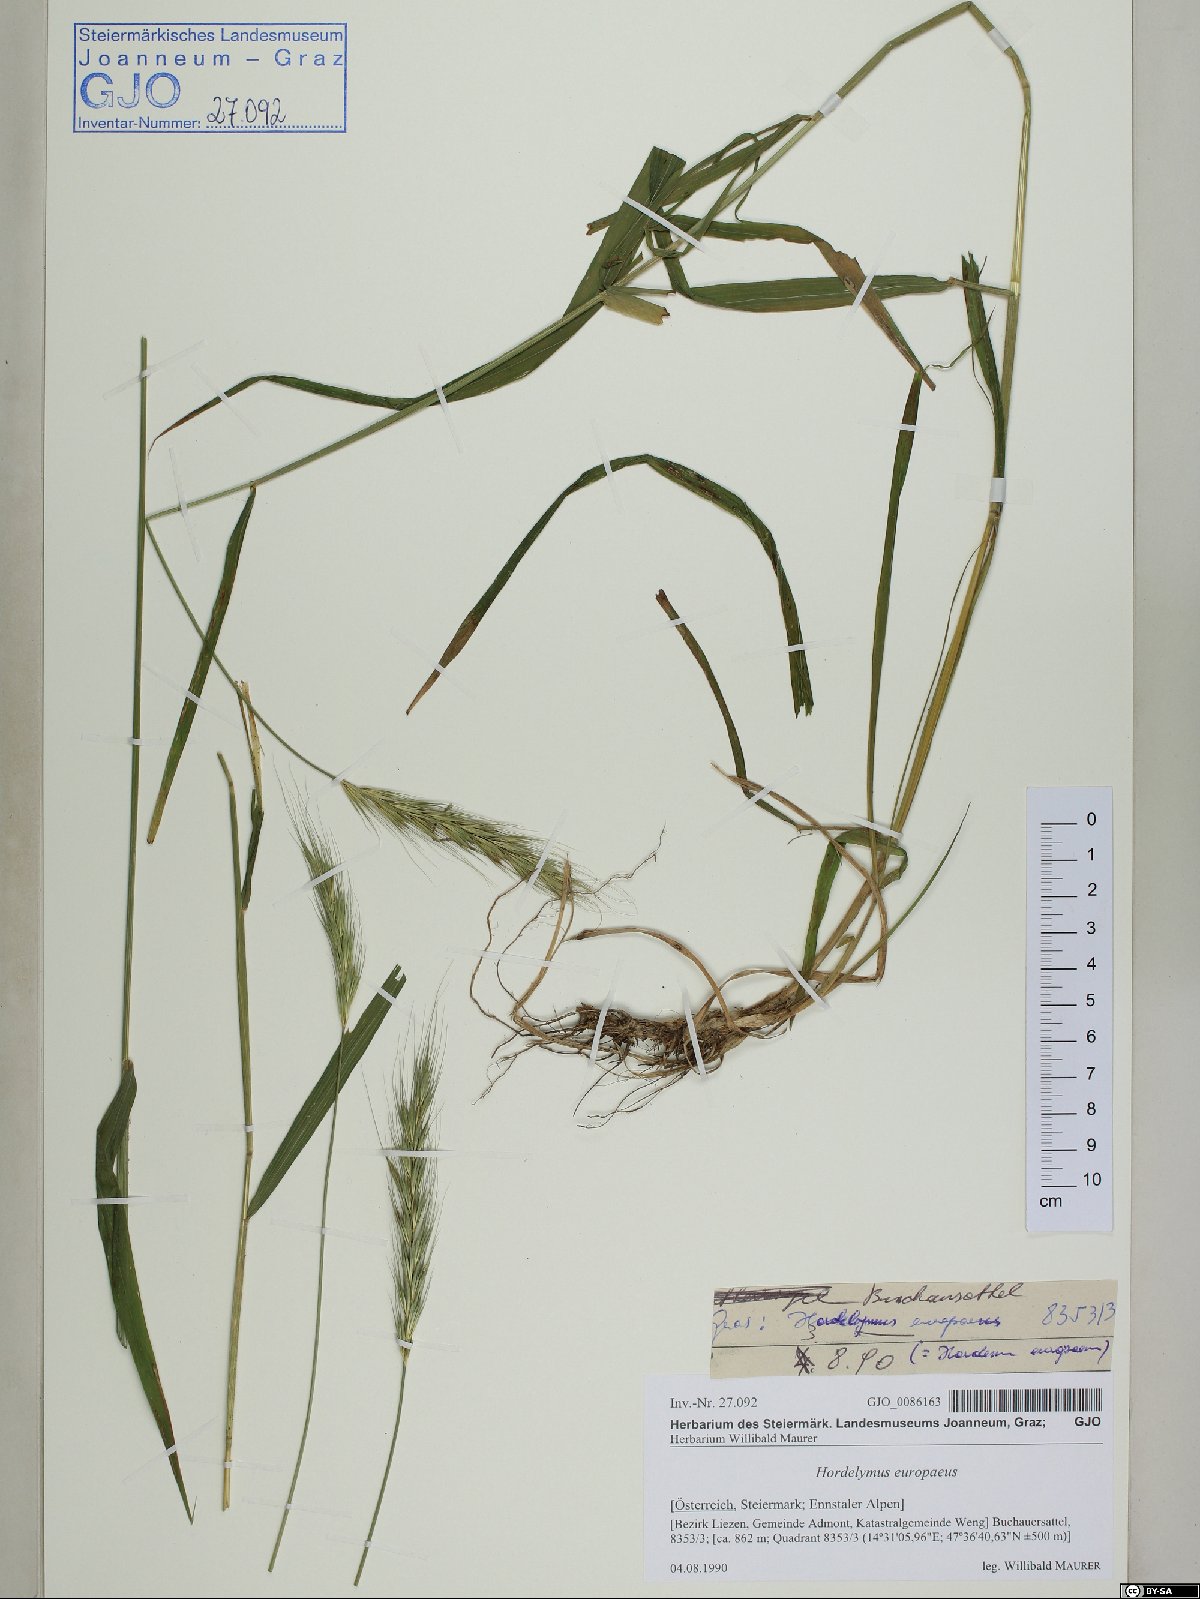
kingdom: Plantae
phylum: Tracheophyta
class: Liliopsida
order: Poales
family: Poaceae
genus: Hordelymus
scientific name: Hordelymus europaeus
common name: Wood-barley
